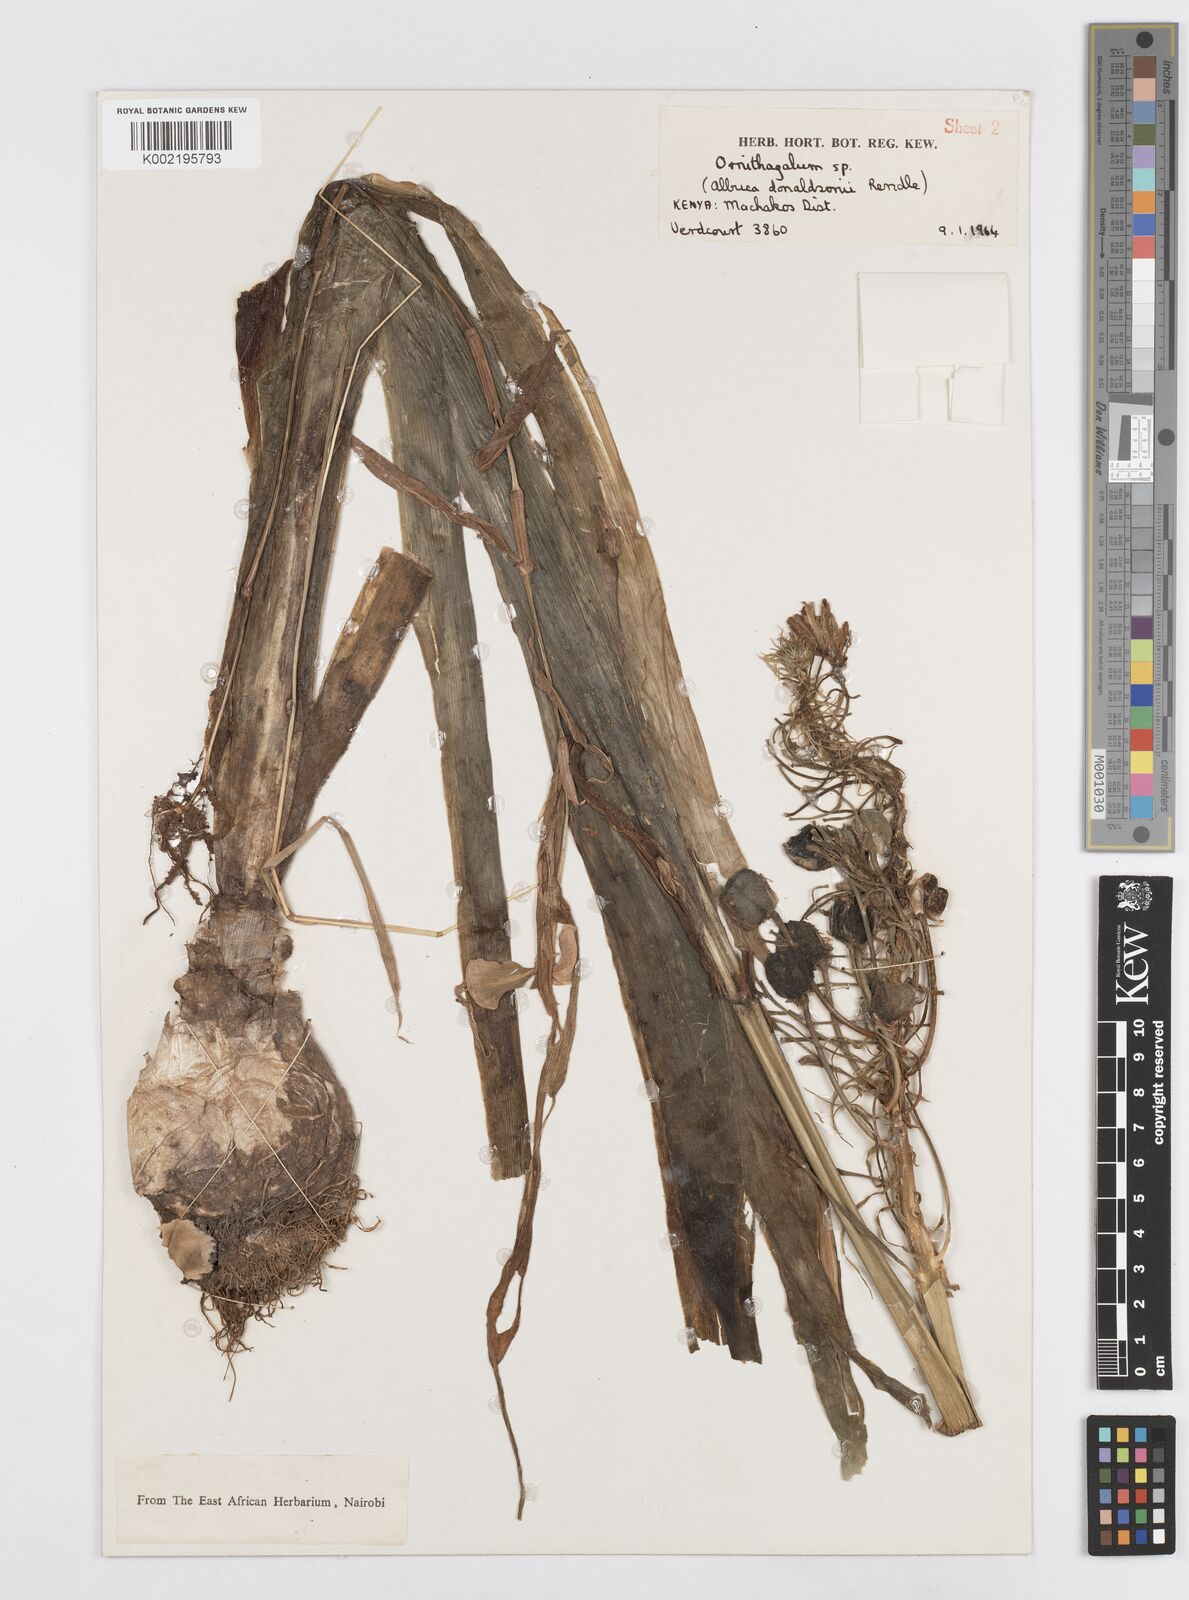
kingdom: Plantae
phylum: Tracheophyta
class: Liliopsida
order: Asparagales
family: Asparagaceae
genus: Albuca
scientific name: Albuca donaldsonii
